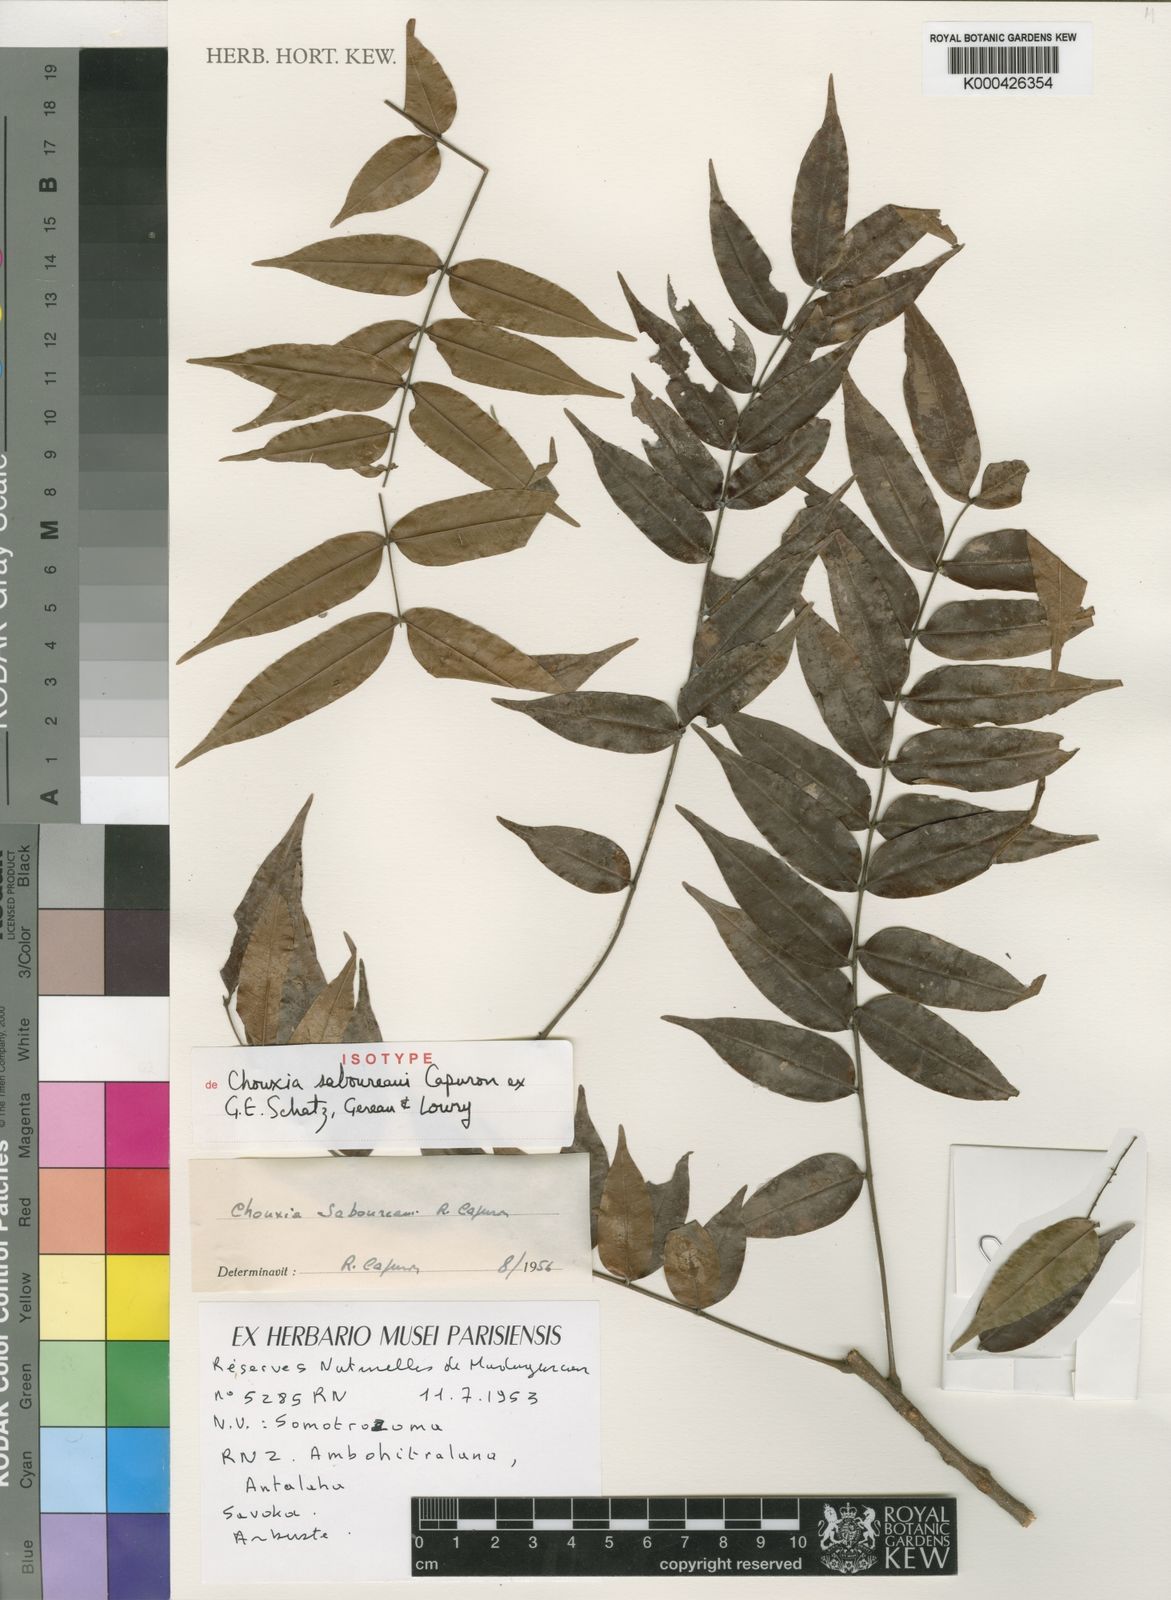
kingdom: Plantae
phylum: Tracheophyta
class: Magnoliopsida
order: Sapindales
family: Sapindaceae
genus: Chouxia
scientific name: Chouxia saboureaui
